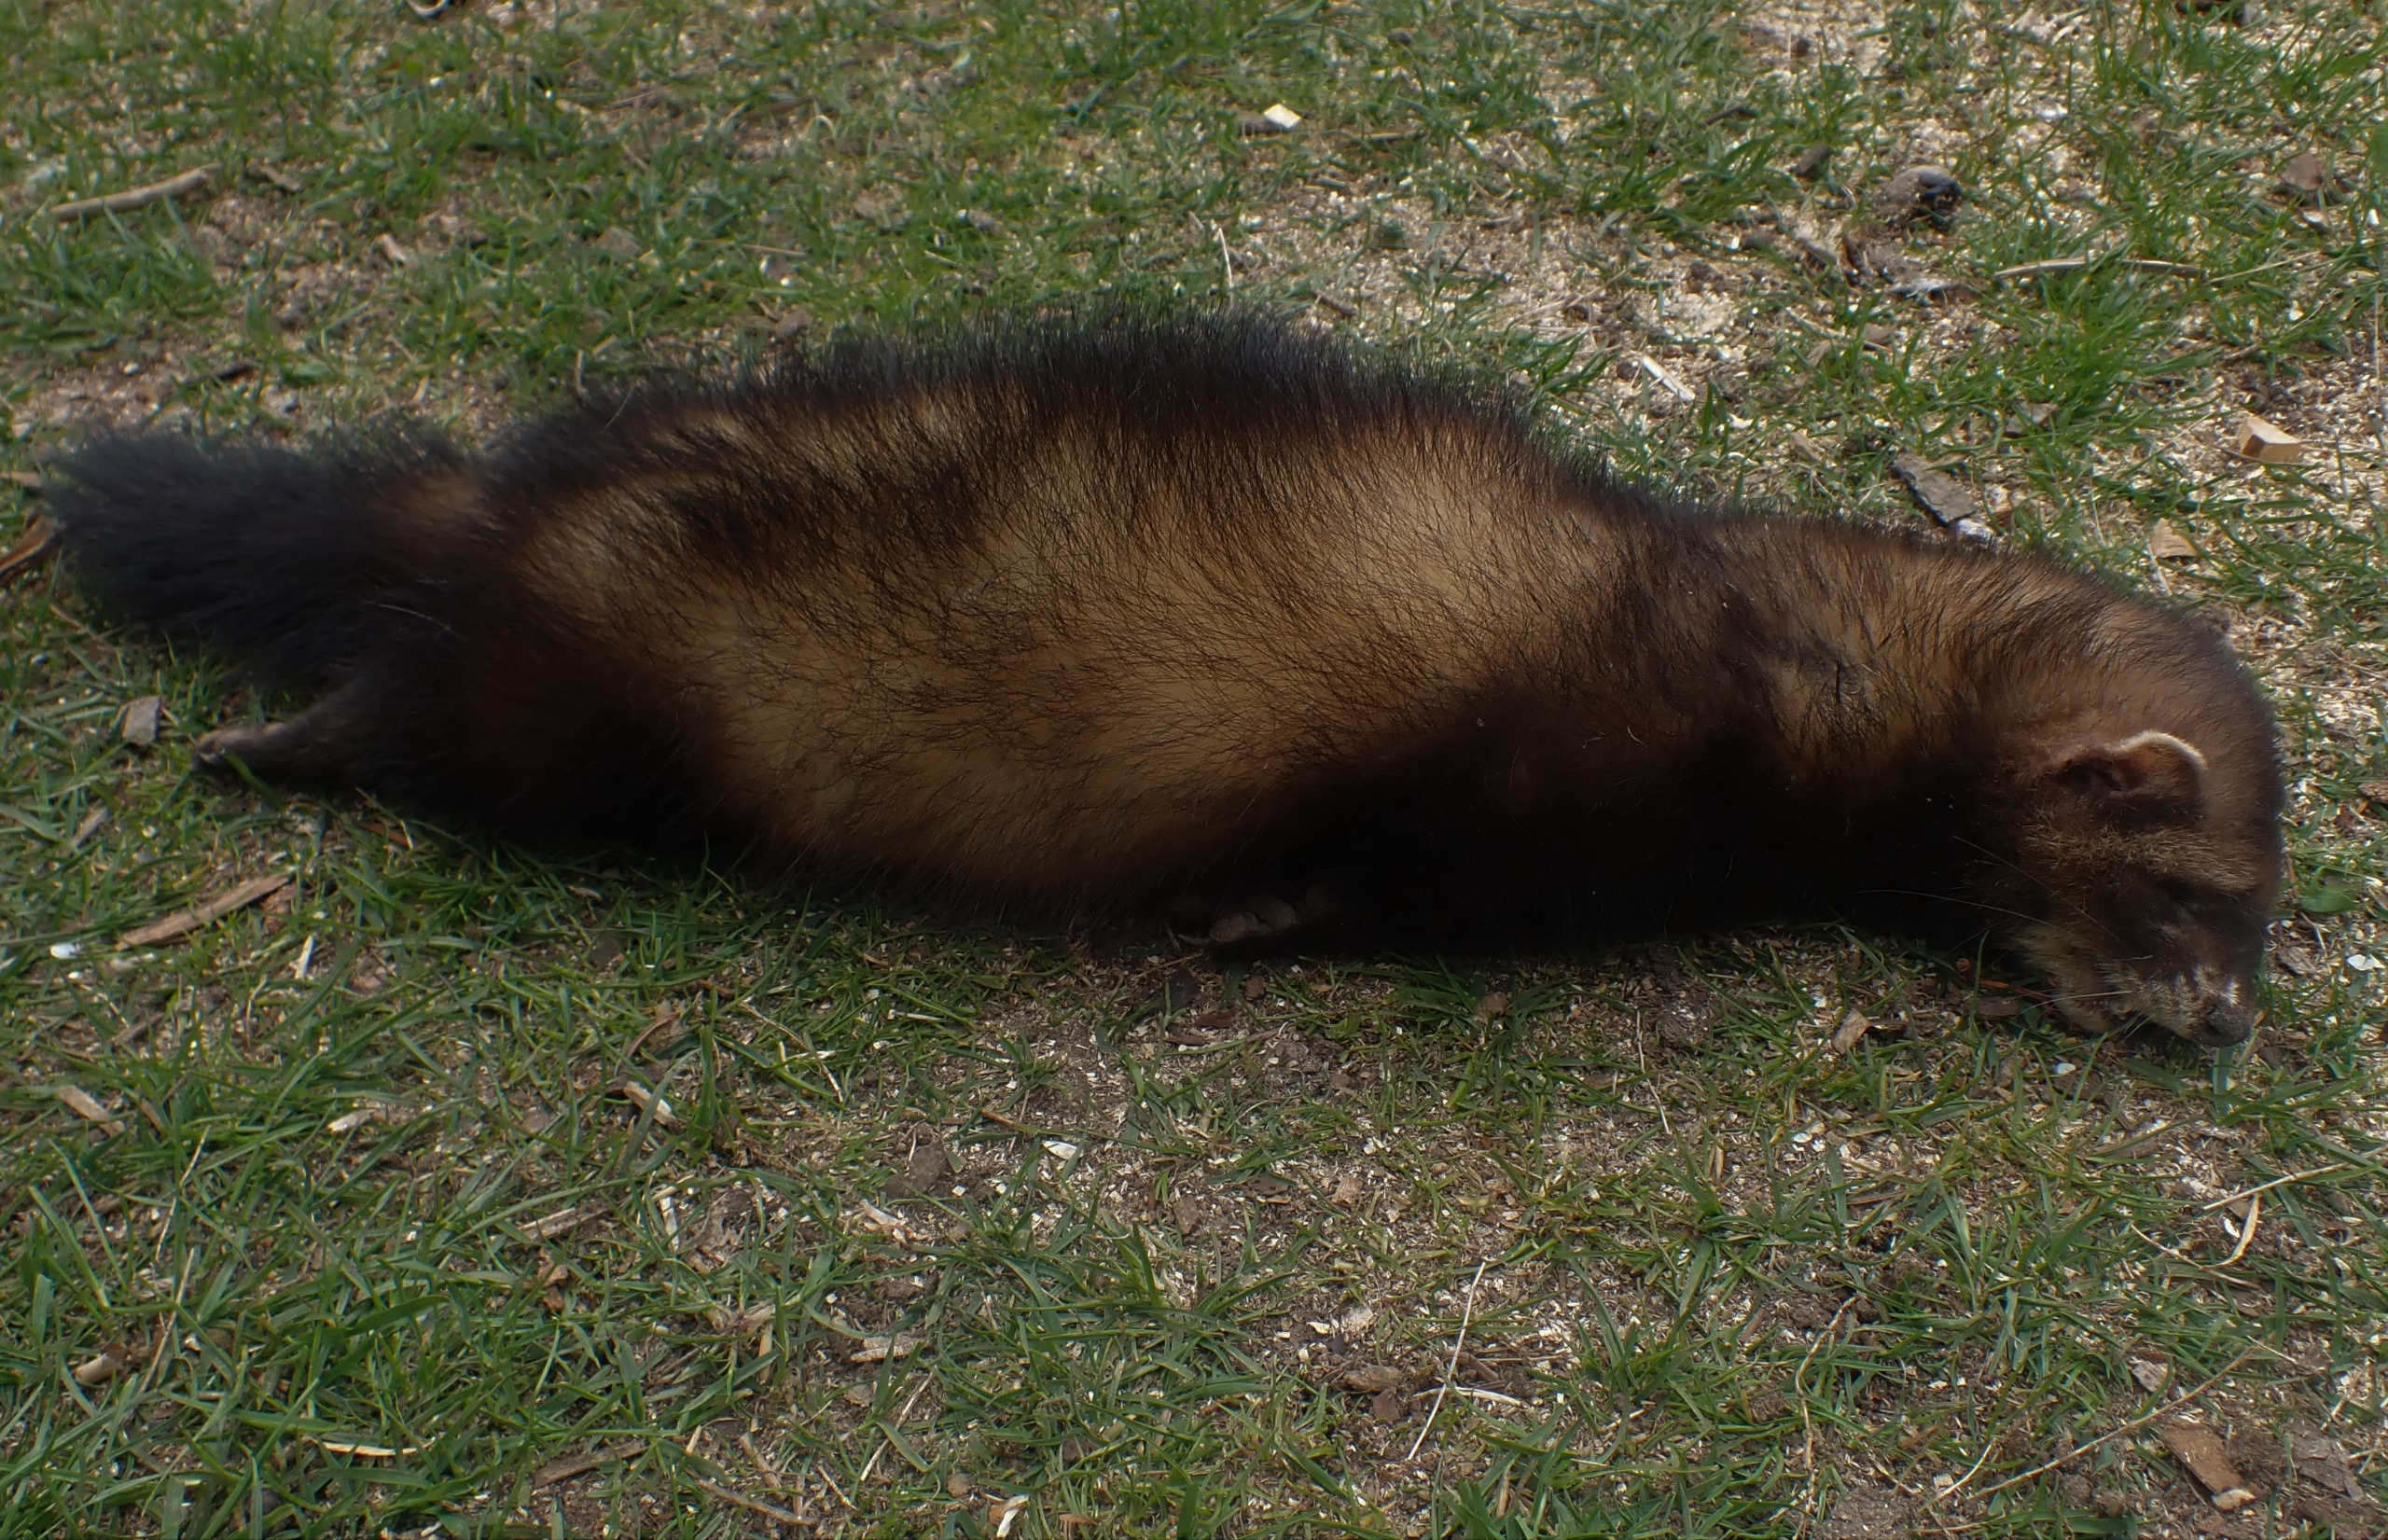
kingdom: Animalia
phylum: Chordata
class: Mammalia
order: Carnivora
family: Mustelidae
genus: Mustela
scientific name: Mustela putorius
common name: Ilder
